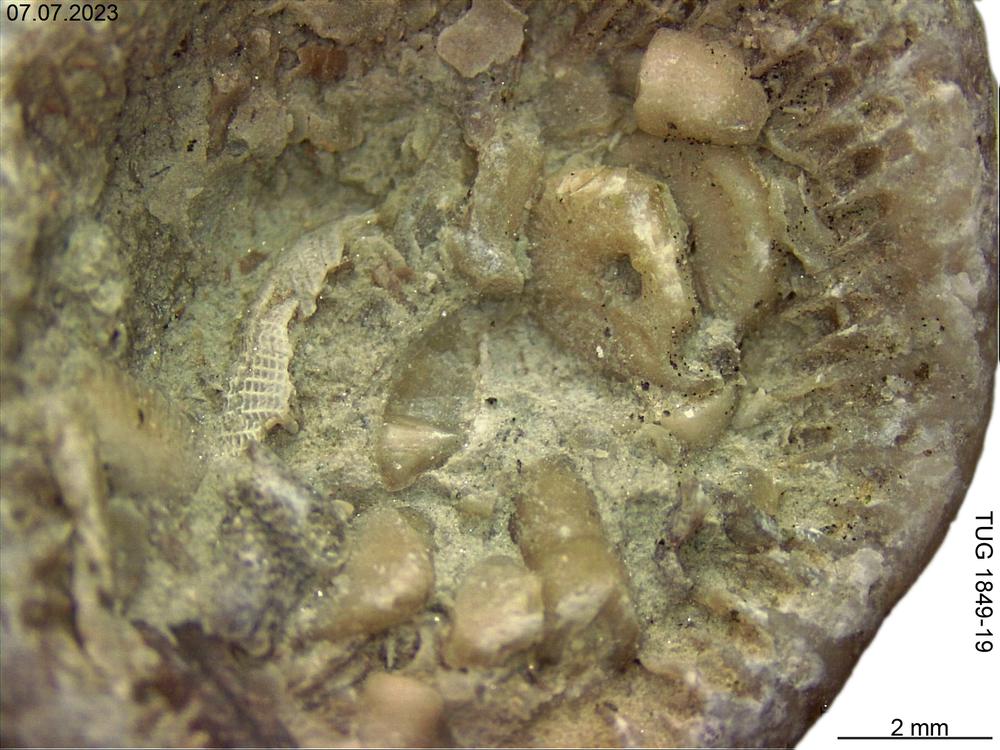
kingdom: Animalia
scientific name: Animalia
